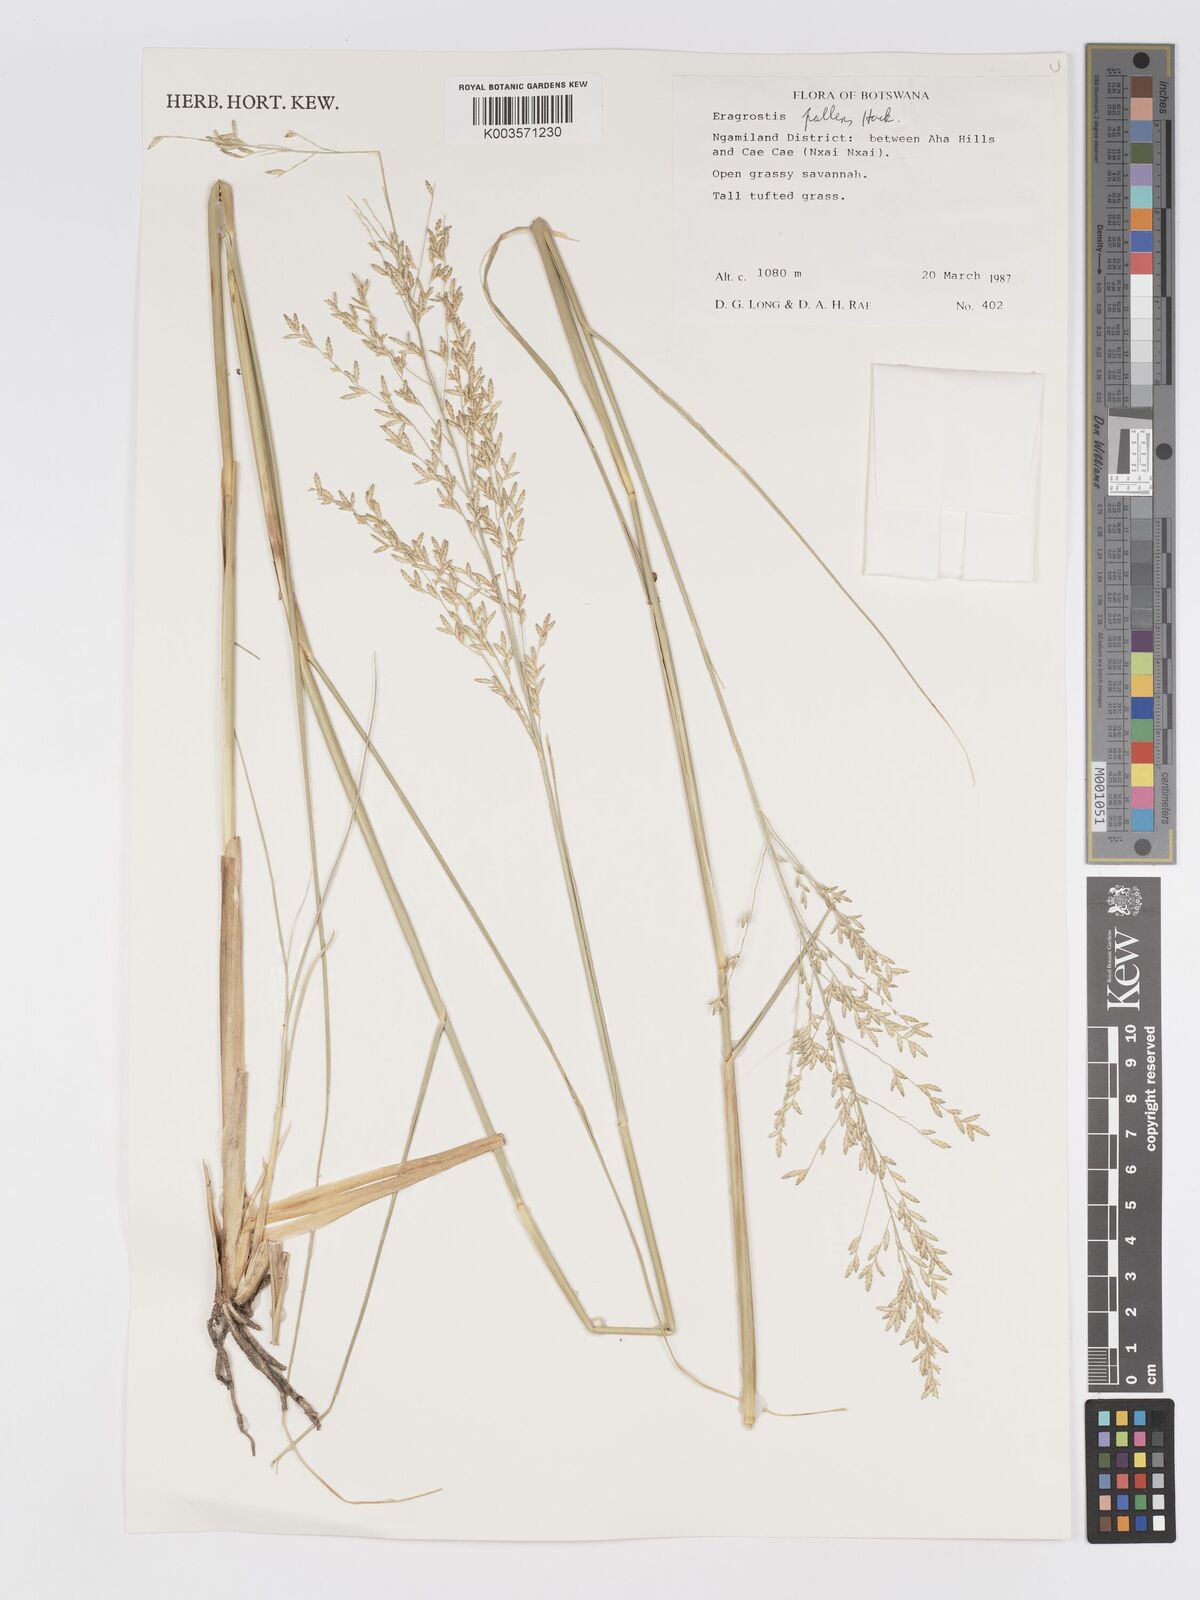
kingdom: Plantae
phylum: Tracheophyta
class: Liliopsida
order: Poales
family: Poaceae
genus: Eragrostis
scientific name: Eragrostis pallens
